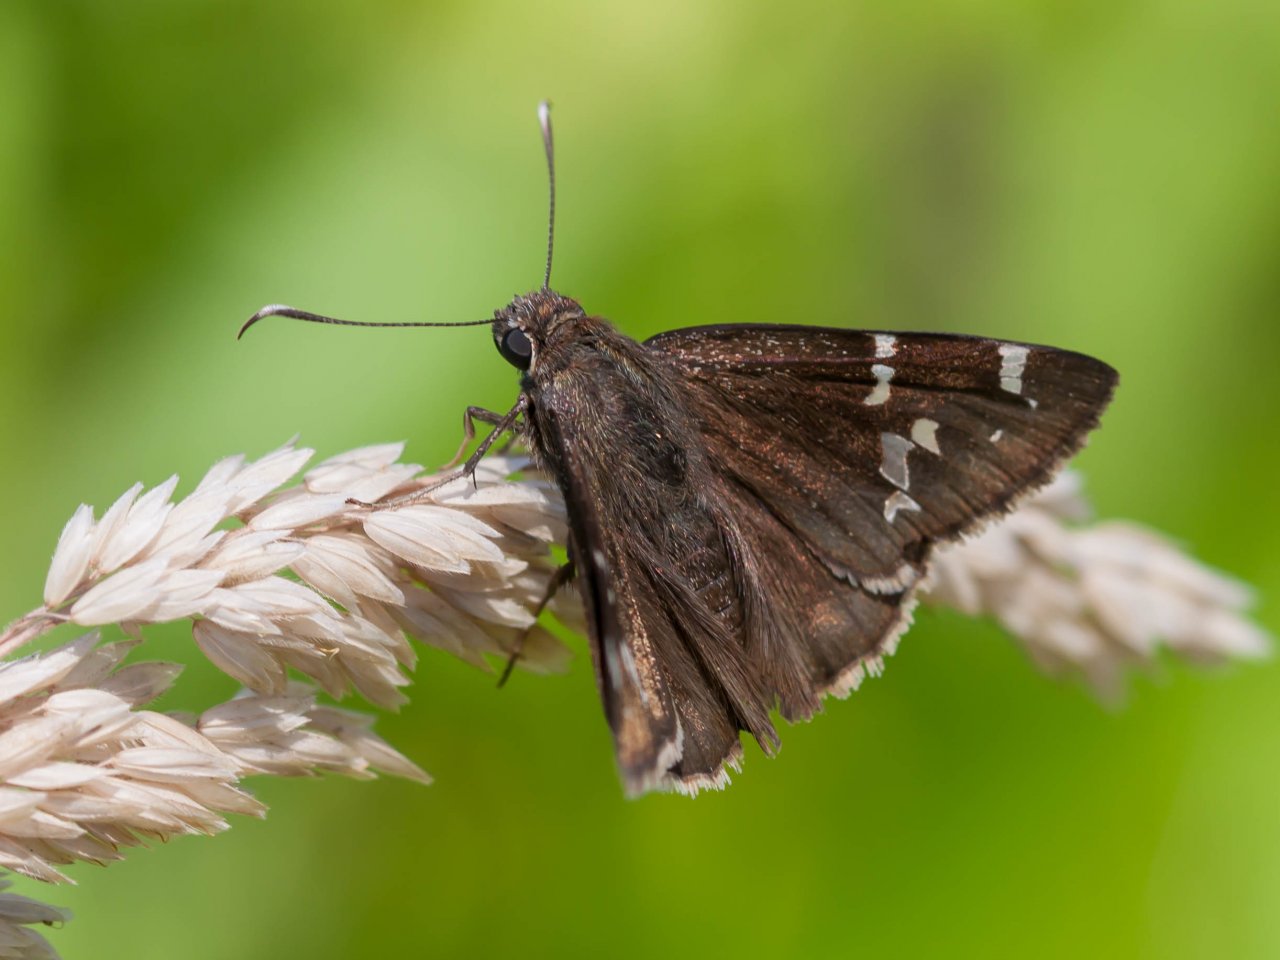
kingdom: Animalia
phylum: Arthropoda
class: Insecta
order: Lepidoptera
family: Hesperiidae
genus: Autochton
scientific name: Autochton
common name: Southern Cloudywing
